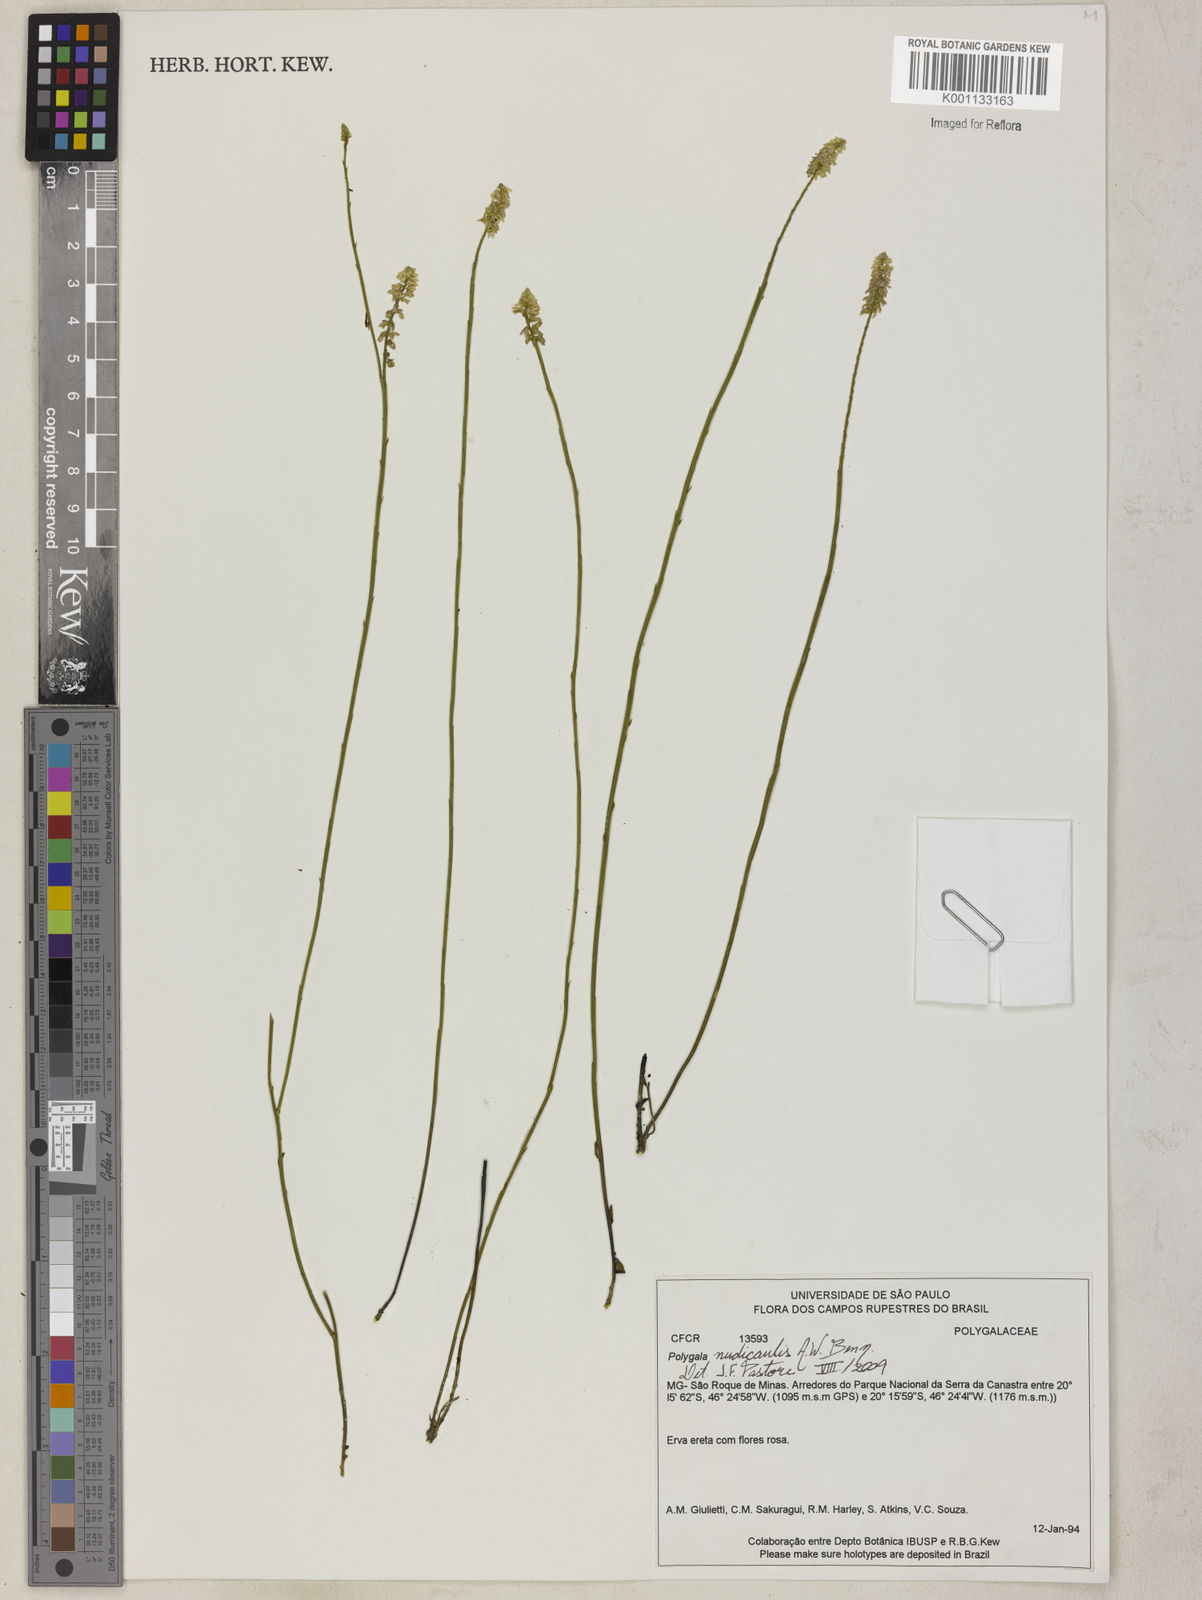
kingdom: Plantae
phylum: Tracheophyta
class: Magnoliopsida
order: Fabales
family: Polygalaceae
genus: Polygala
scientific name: Polygala nudicaulis
